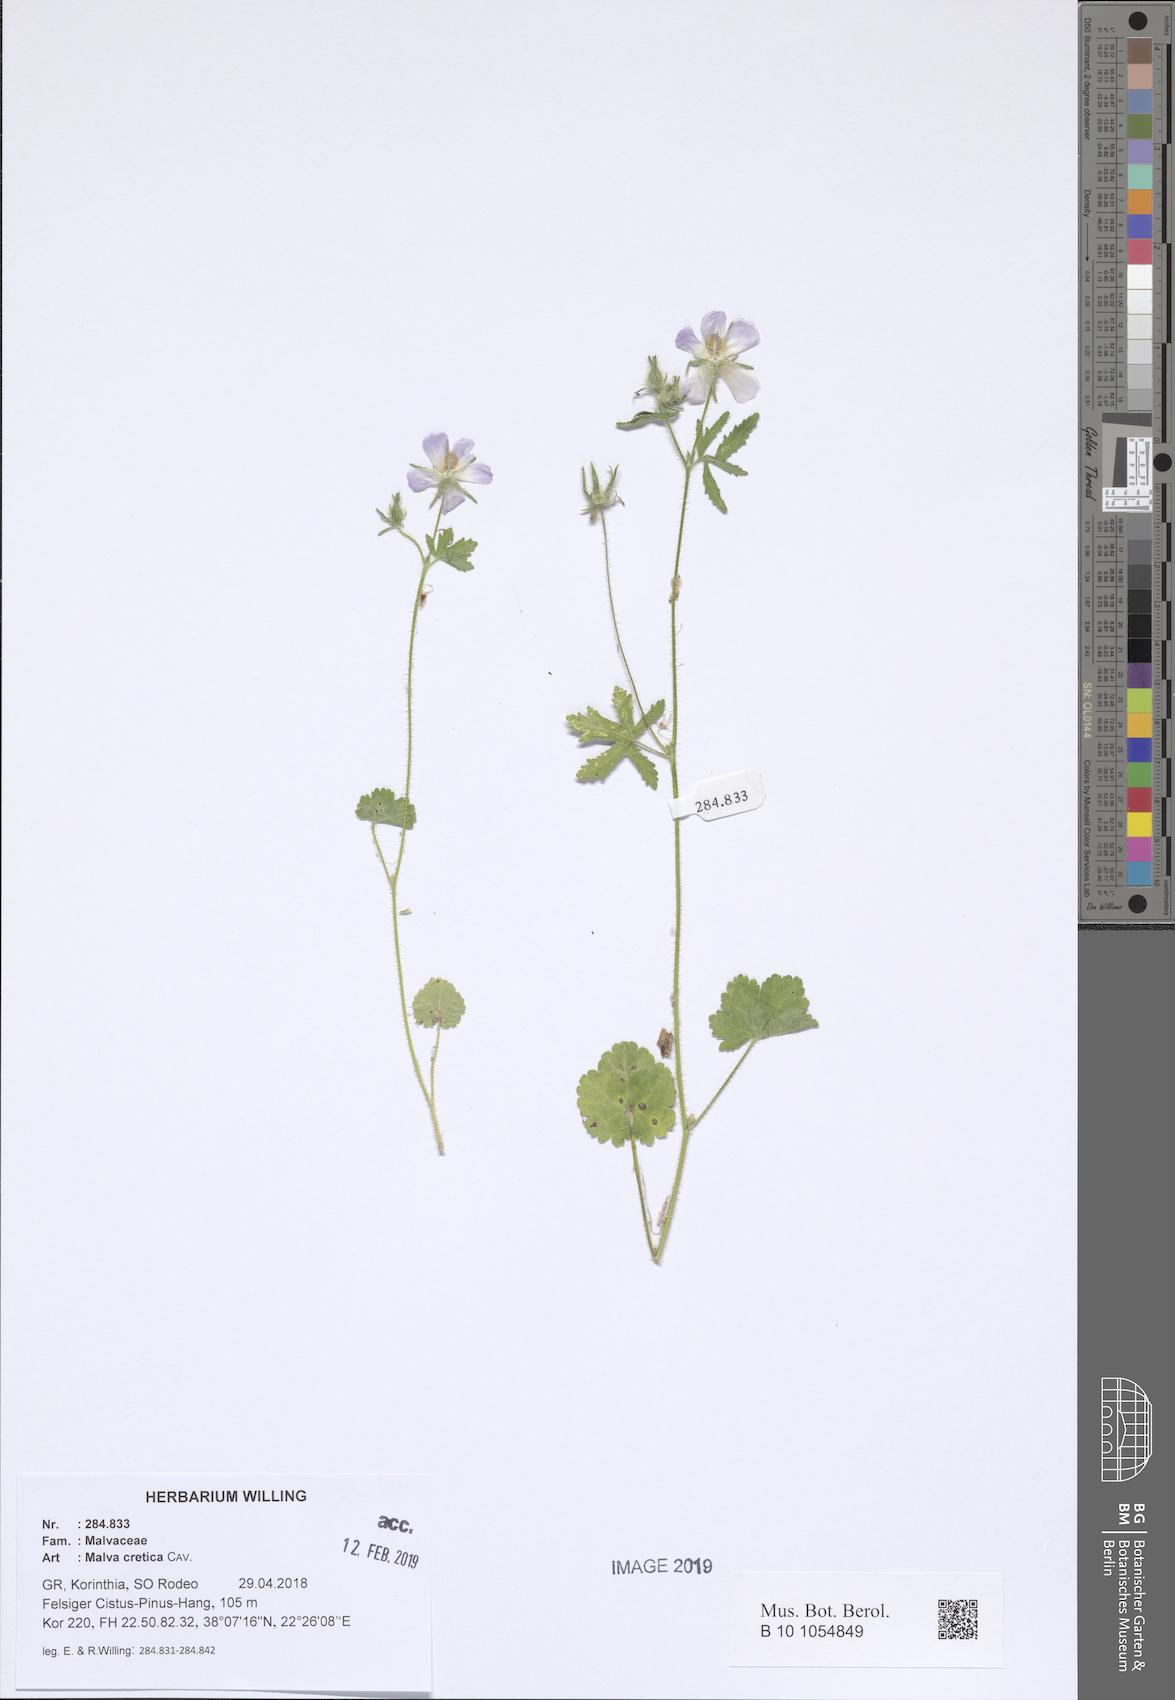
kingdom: Plantae
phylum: Tracheophyta
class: Magnoliopsida
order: Malvales
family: Malvaceae
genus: Malva
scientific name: Malva cretica
